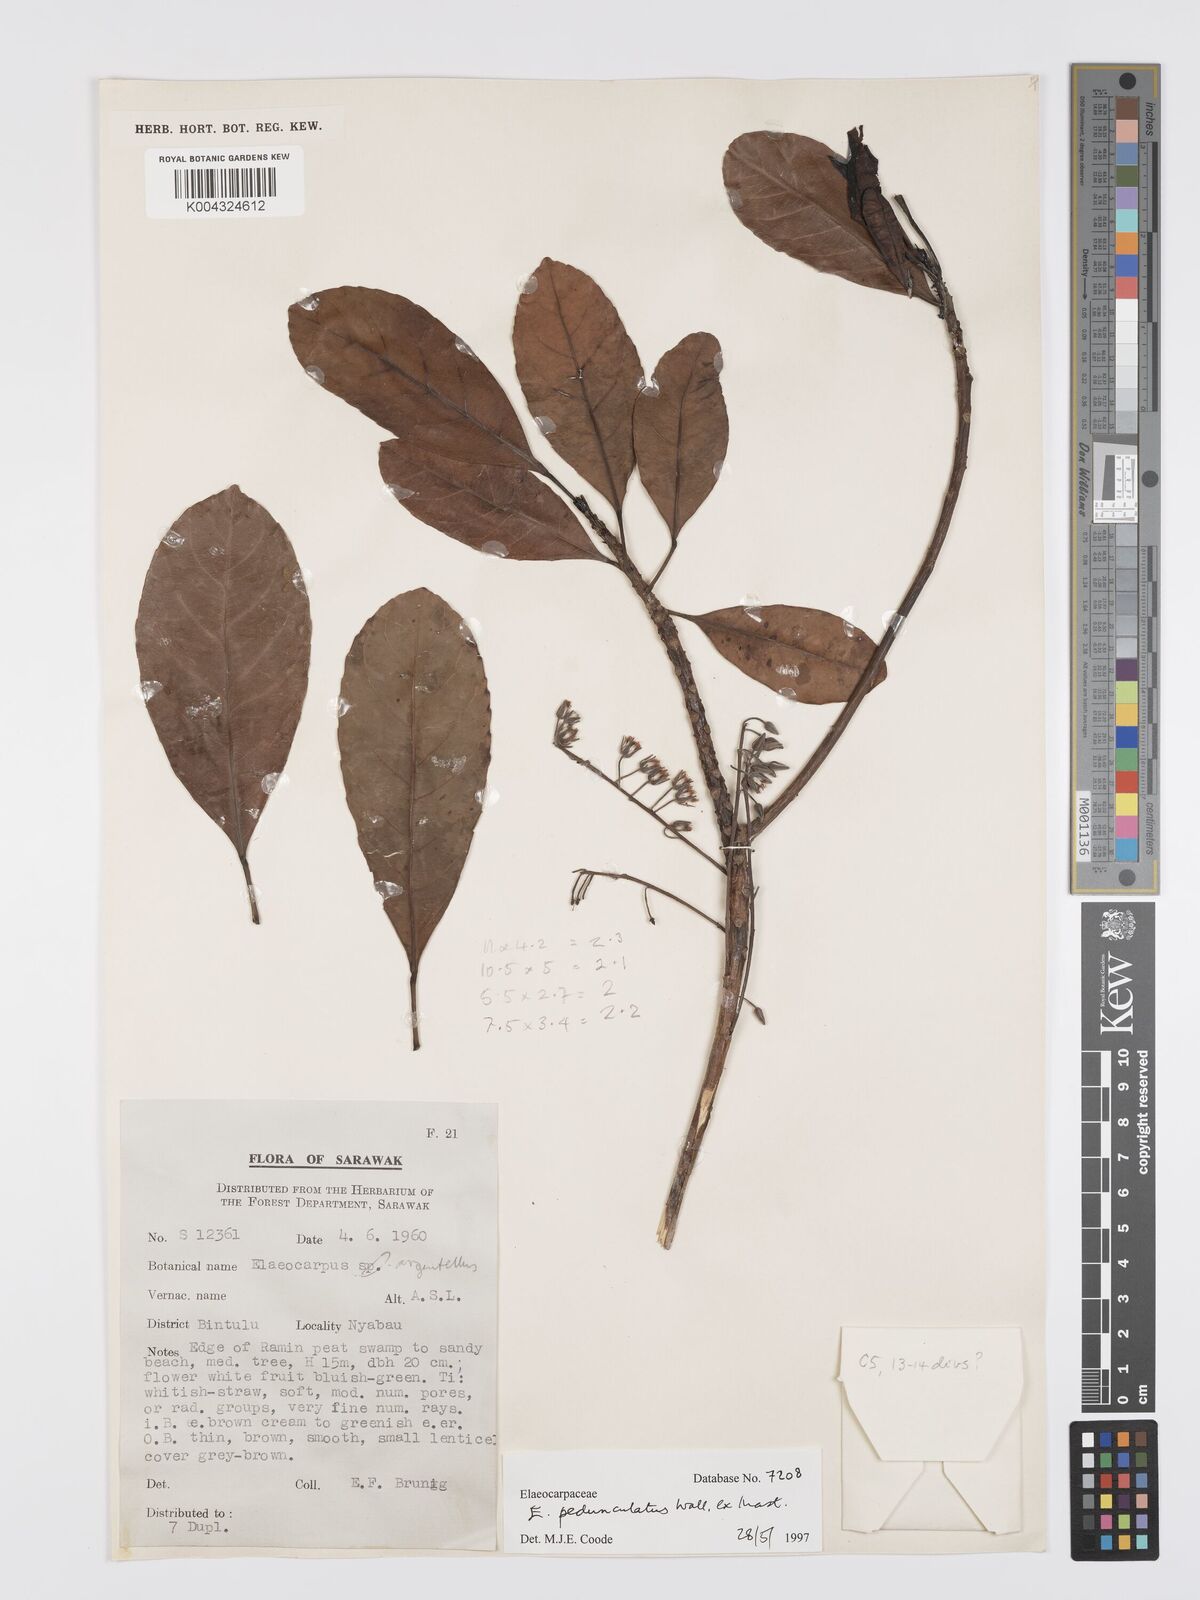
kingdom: Plantae
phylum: Tracheophyta
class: Magnoliopsida
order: Oxalidales
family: Elaeocarpaceae
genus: Elaeocarpus
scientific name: Elaeocarpus pedunculatus
